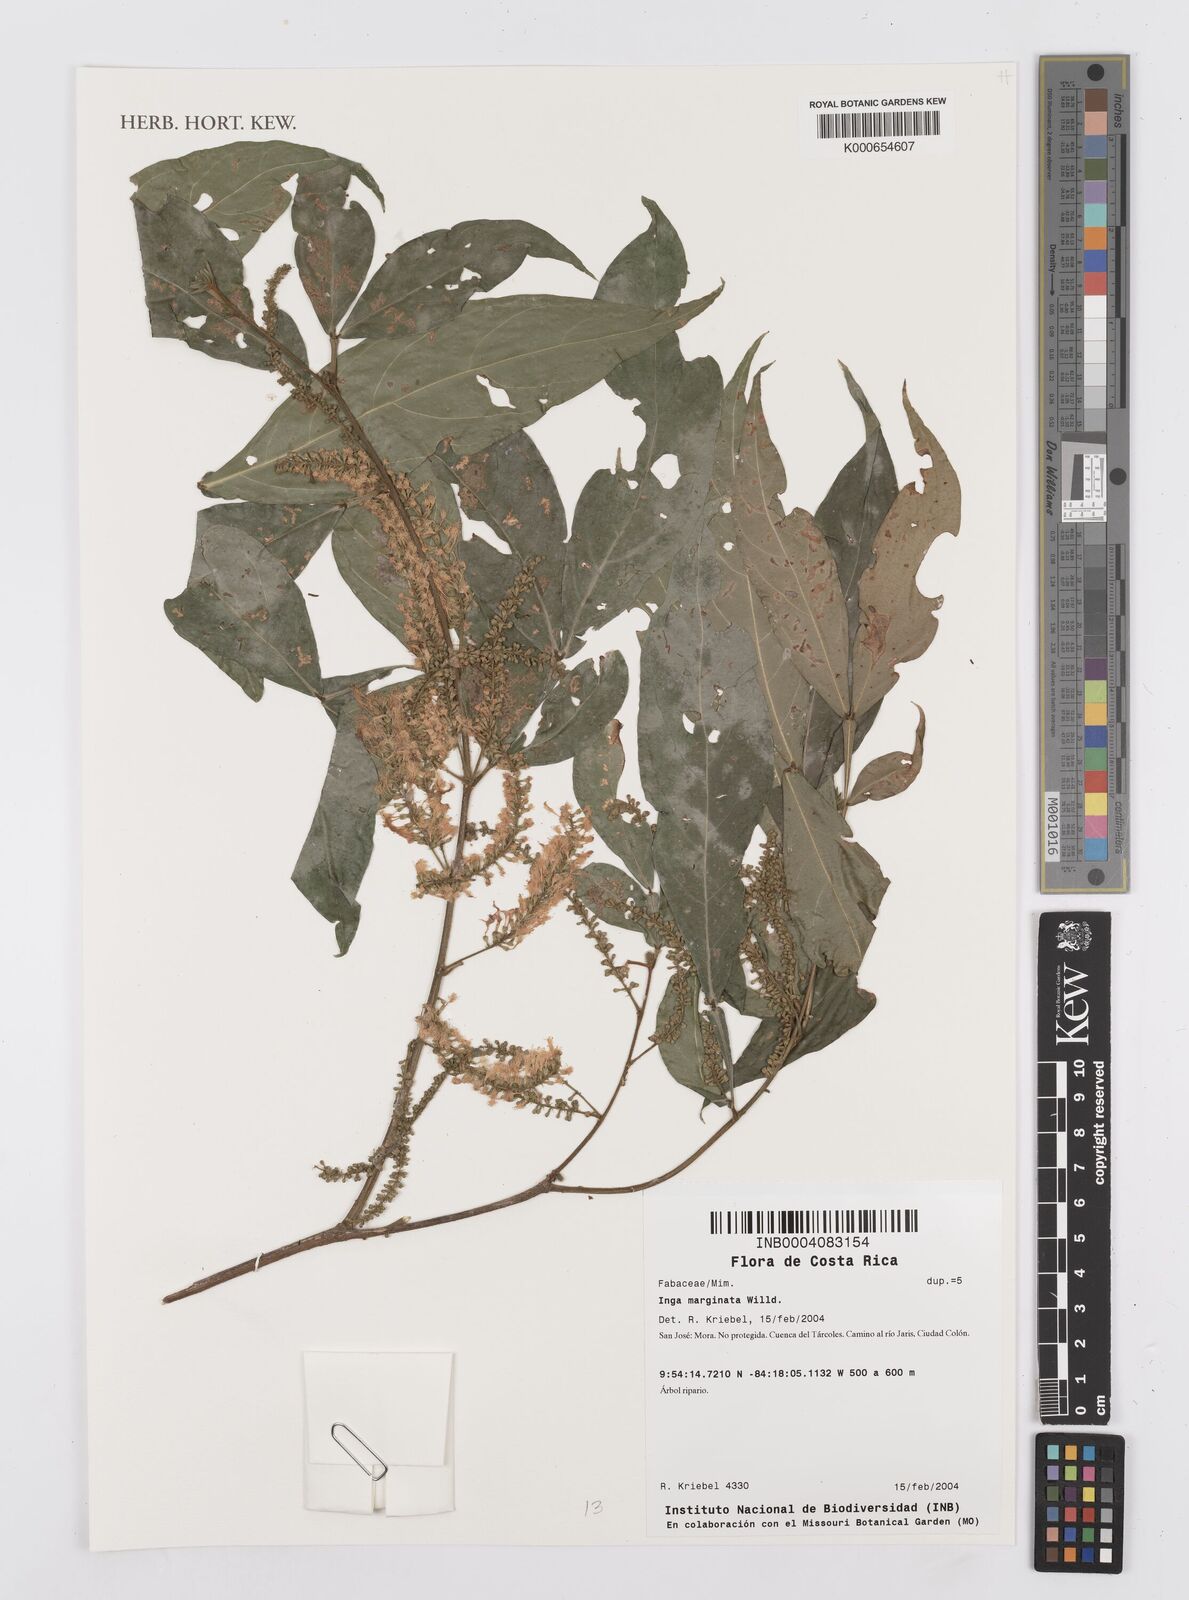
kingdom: Plantae
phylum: Tracheophyta
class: Magnoliopsida
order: Fabales
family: Fabaceae
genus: Inga
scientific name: Inga marginata
